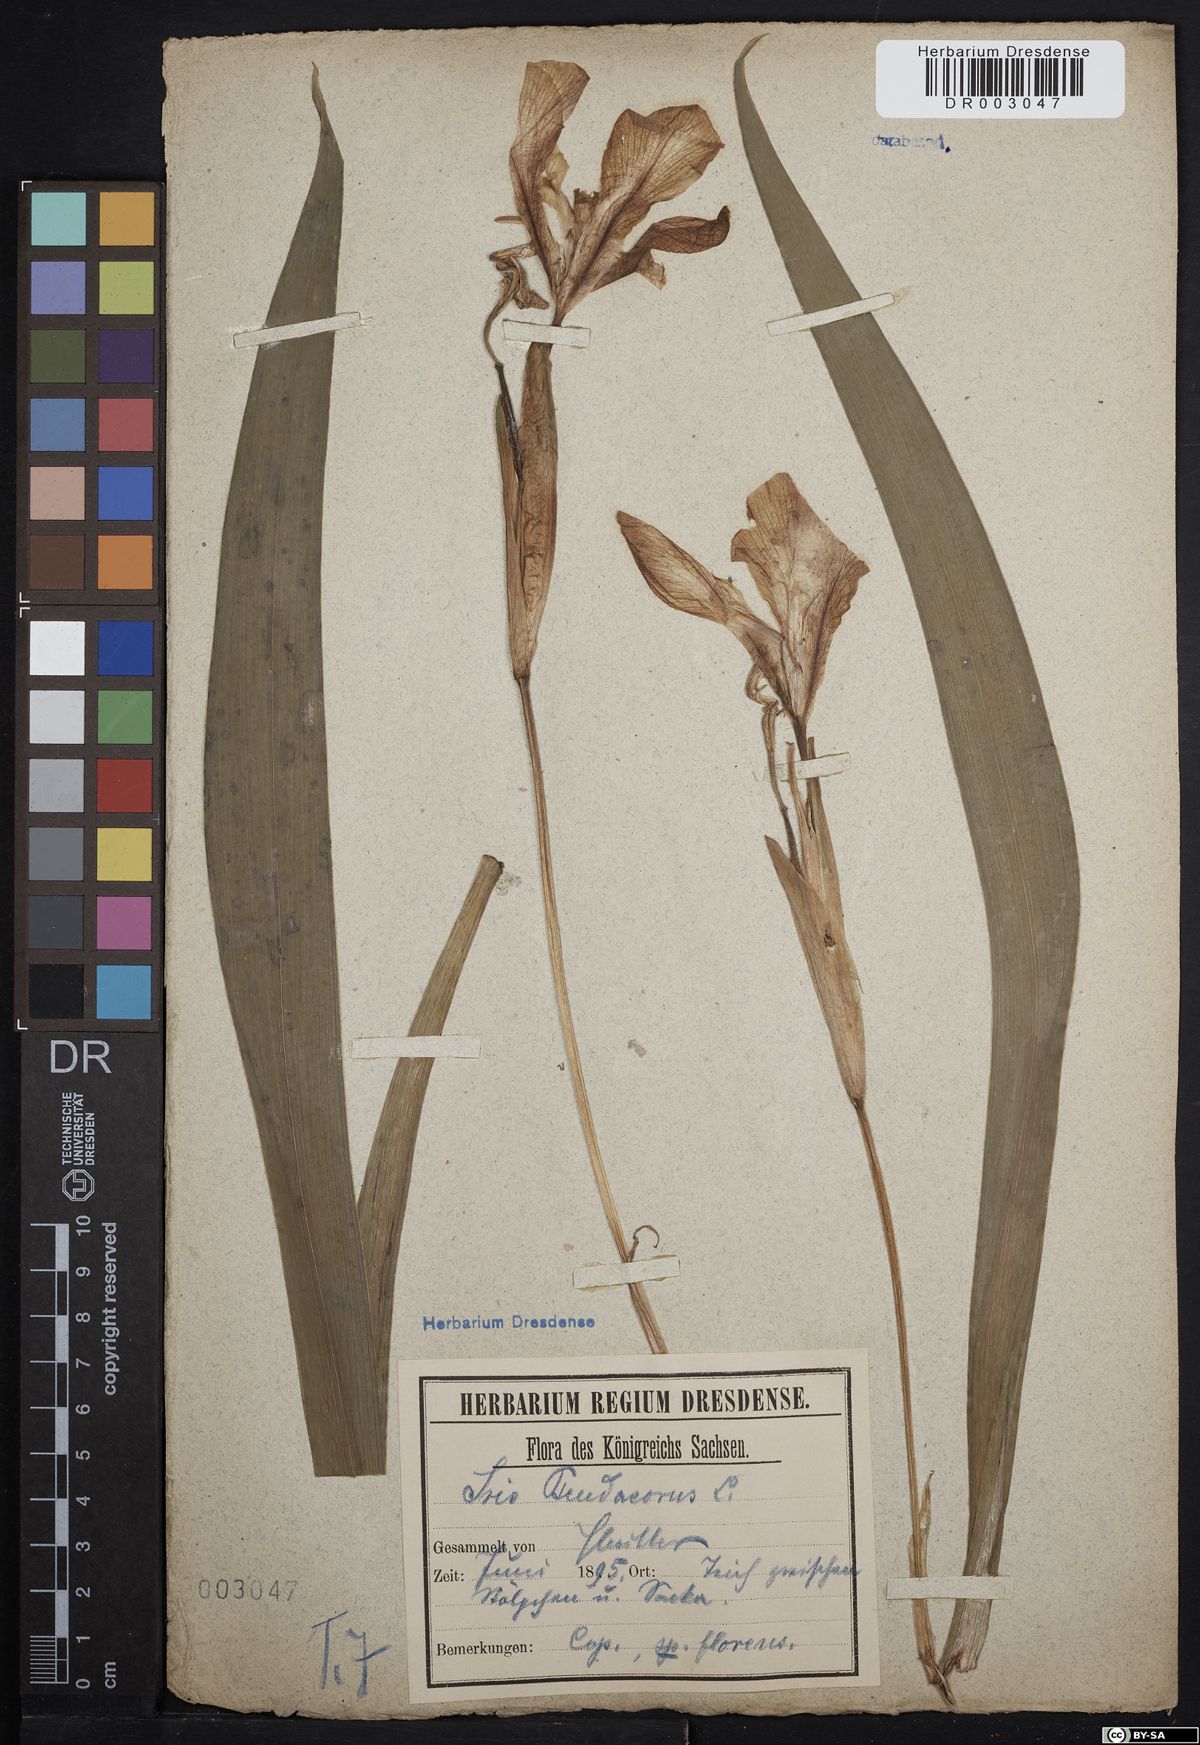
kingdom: Plantae
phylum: Tracheophyta
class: Liliopsida
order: Asparagales
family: Iridaceae
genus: Iris
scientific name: Iris pseudacorus
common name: Yellow flag
